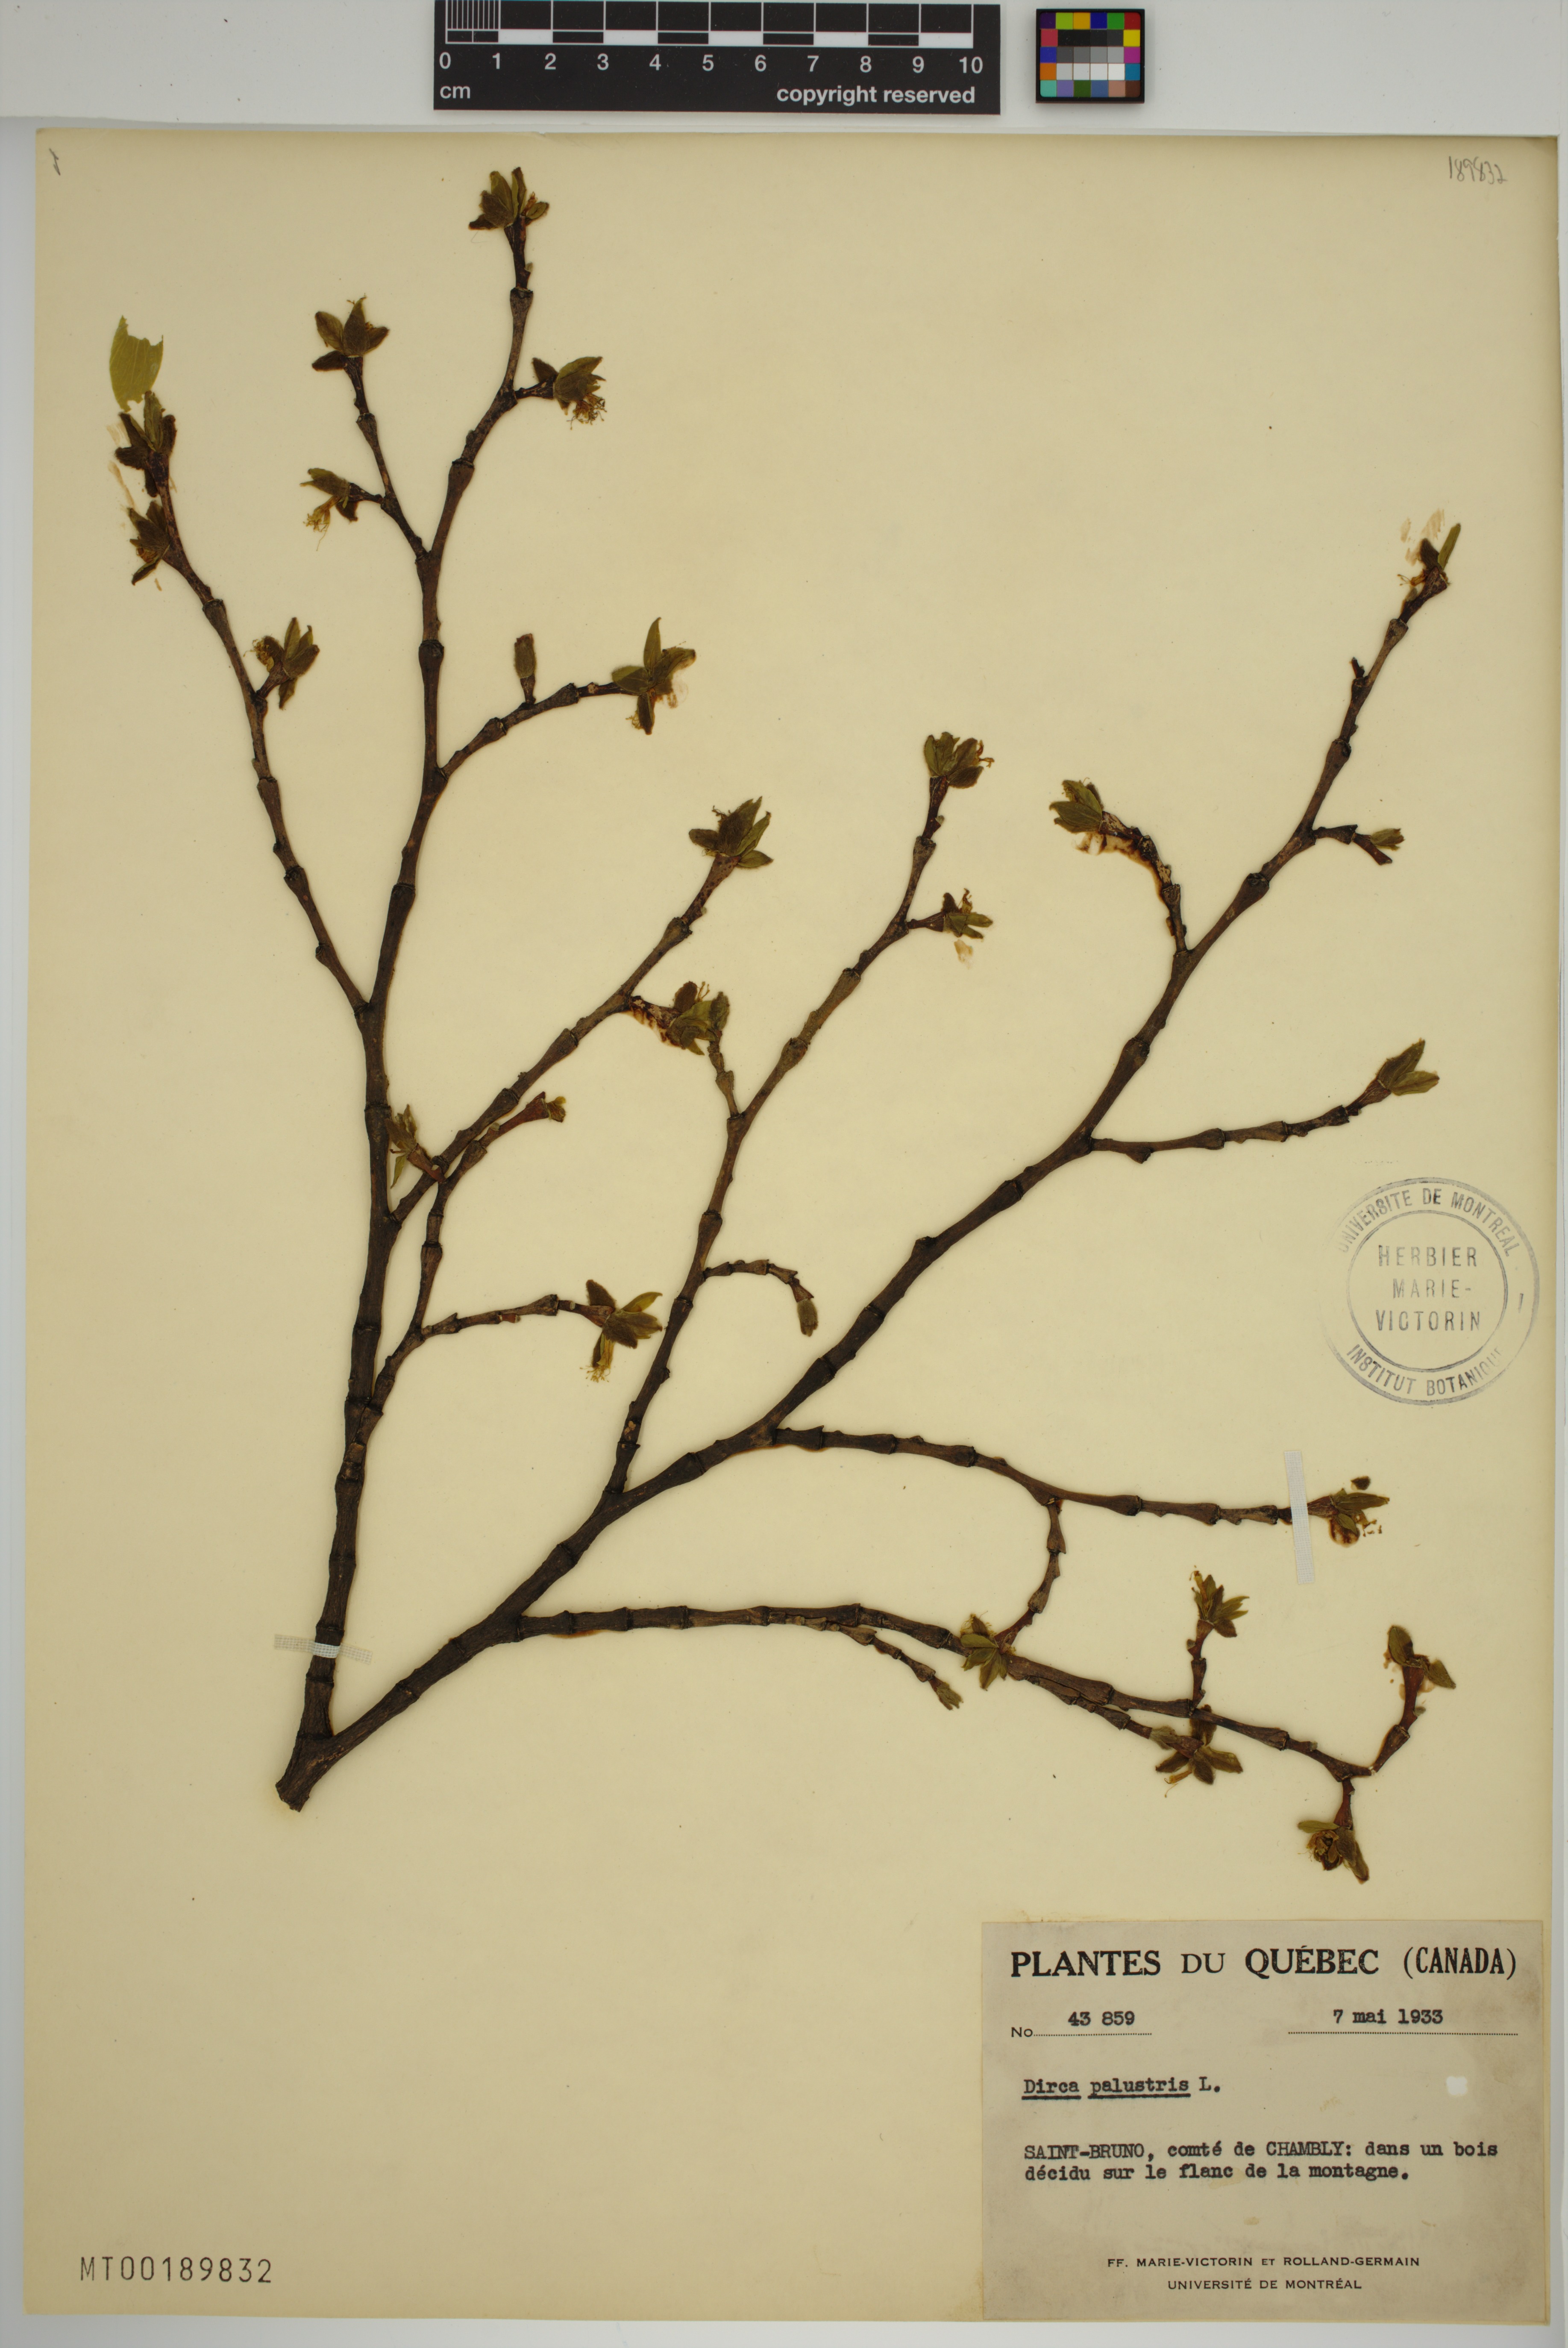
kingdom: Plantae
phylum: Tracheophyta
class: Magnoliopsida
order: Malvales
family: Thymelaeaceae
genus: Dirca
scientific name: Dirca palustris
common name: Leatherwood
